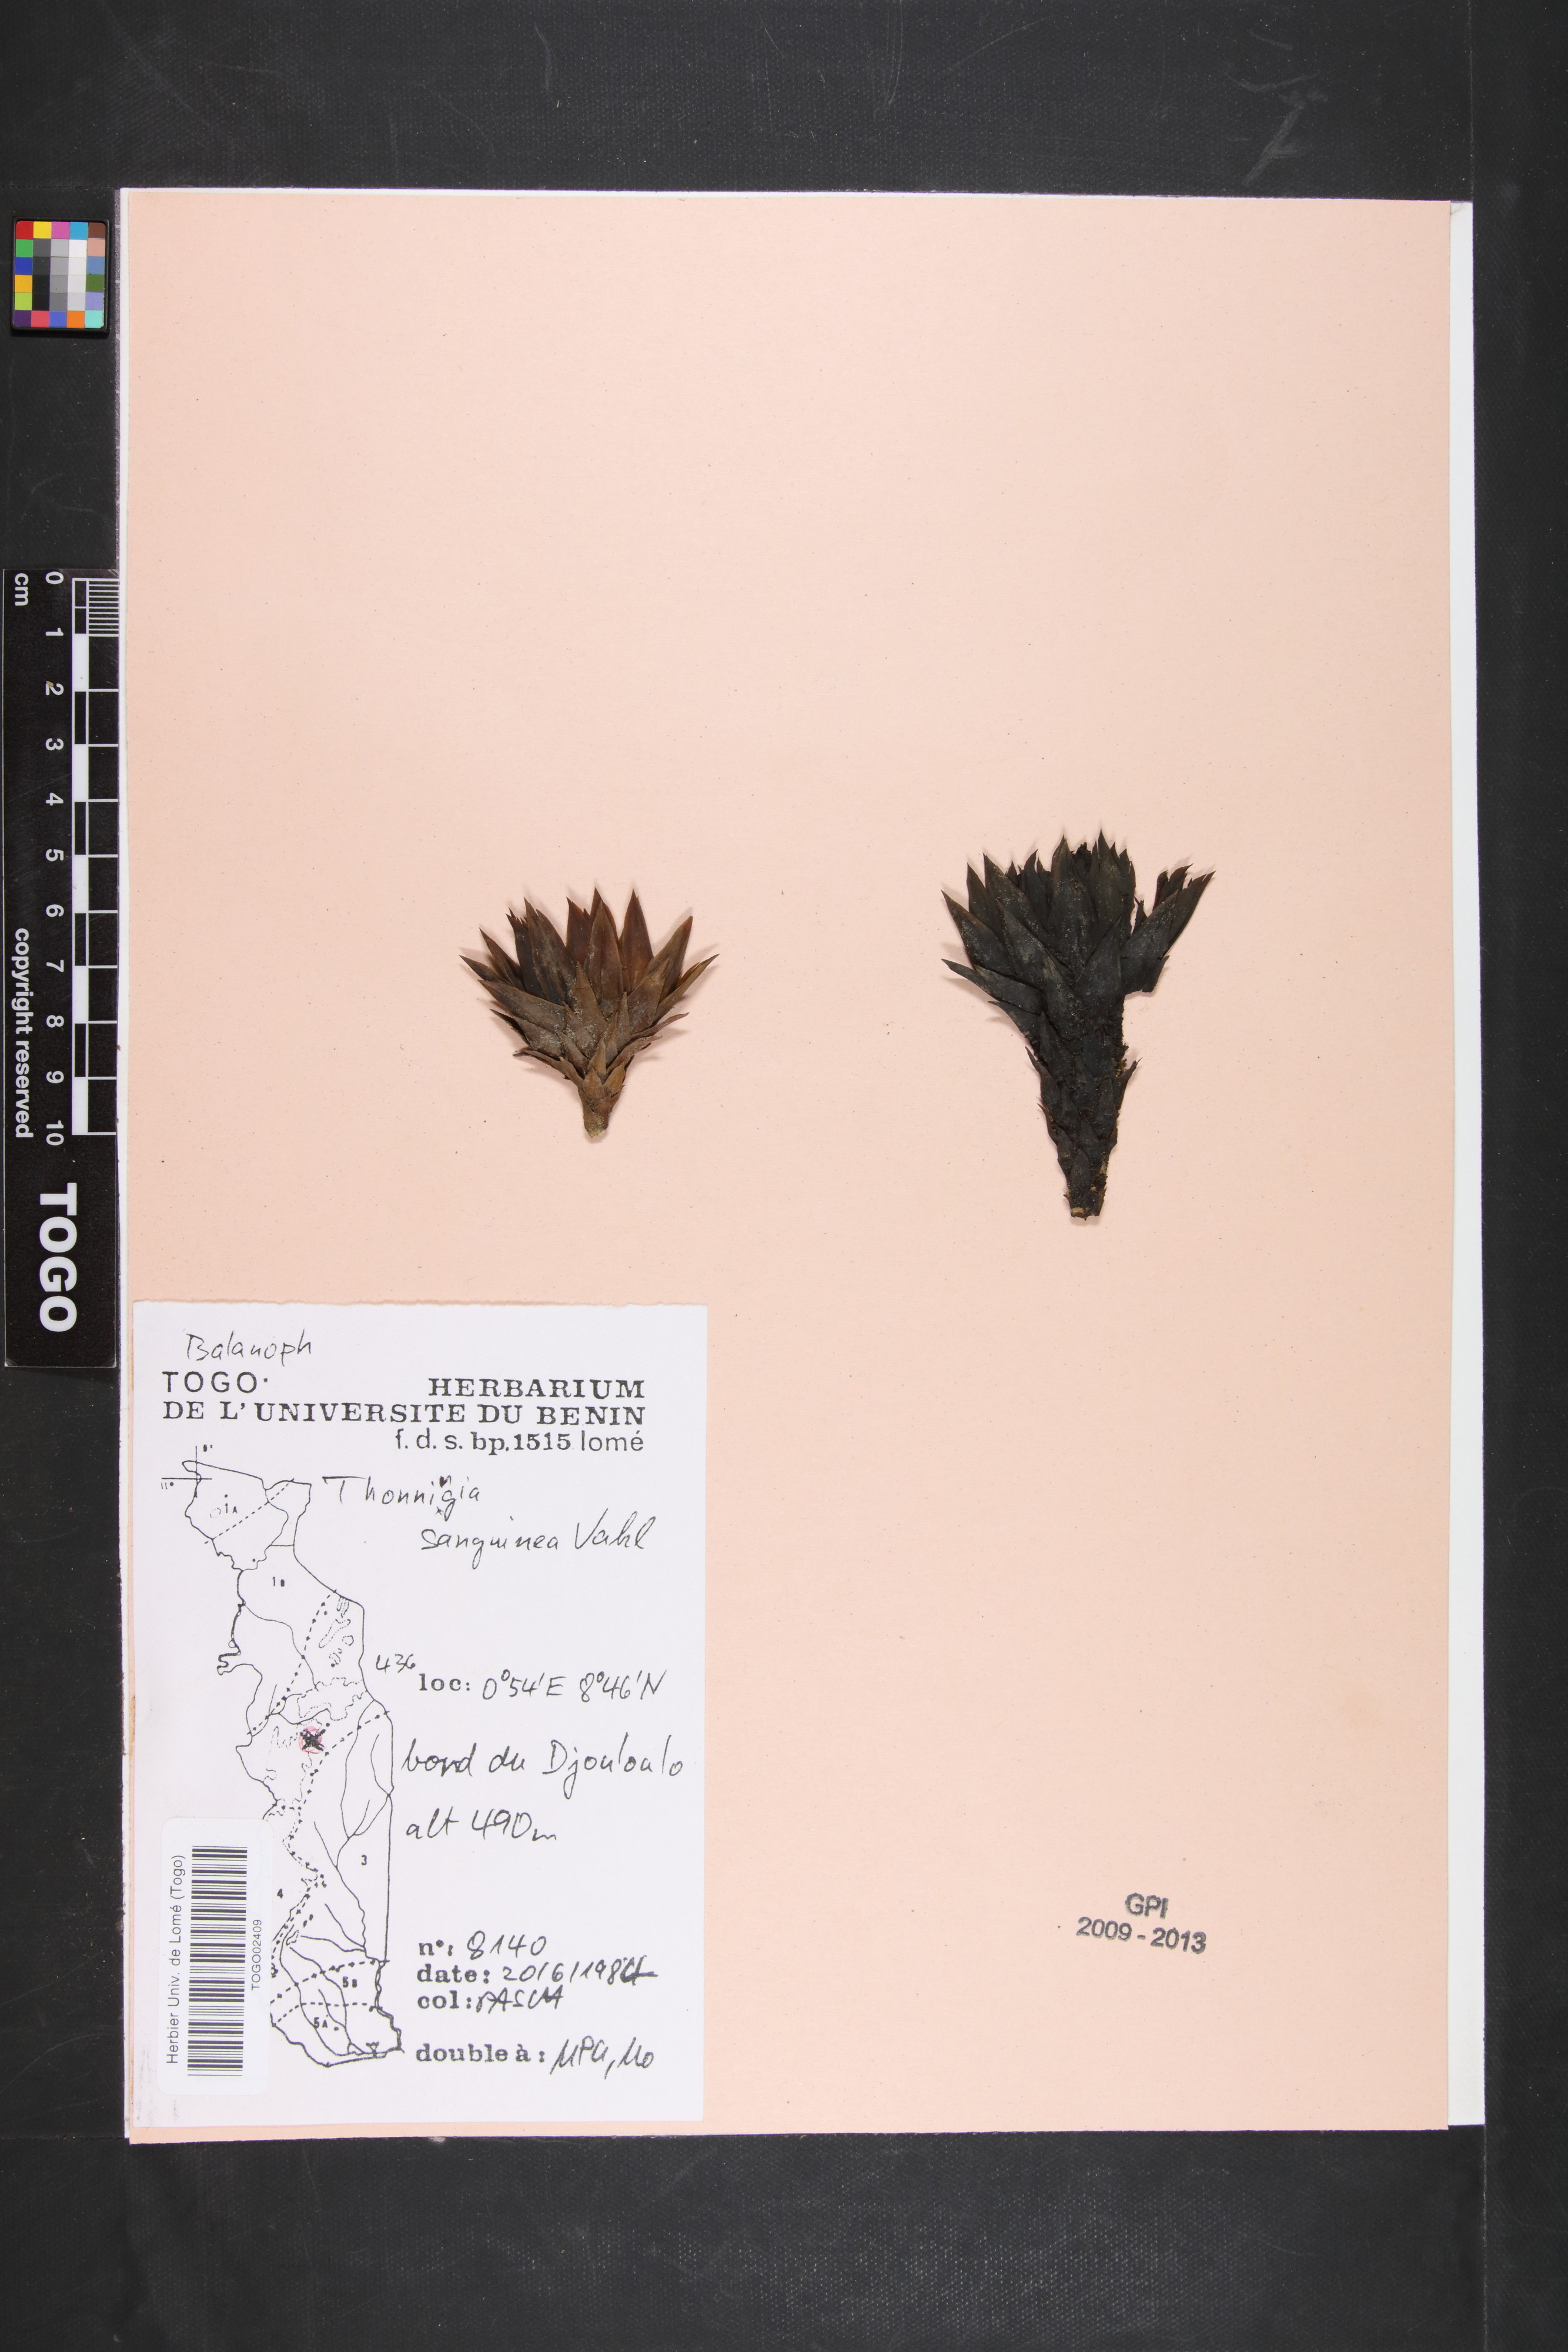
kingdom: Plantae
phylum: Tracheophyta
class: Magnoliopsida
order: Santalales
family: Balanophoraceae
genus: Thonningia
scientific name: Thonningia sanguinea
